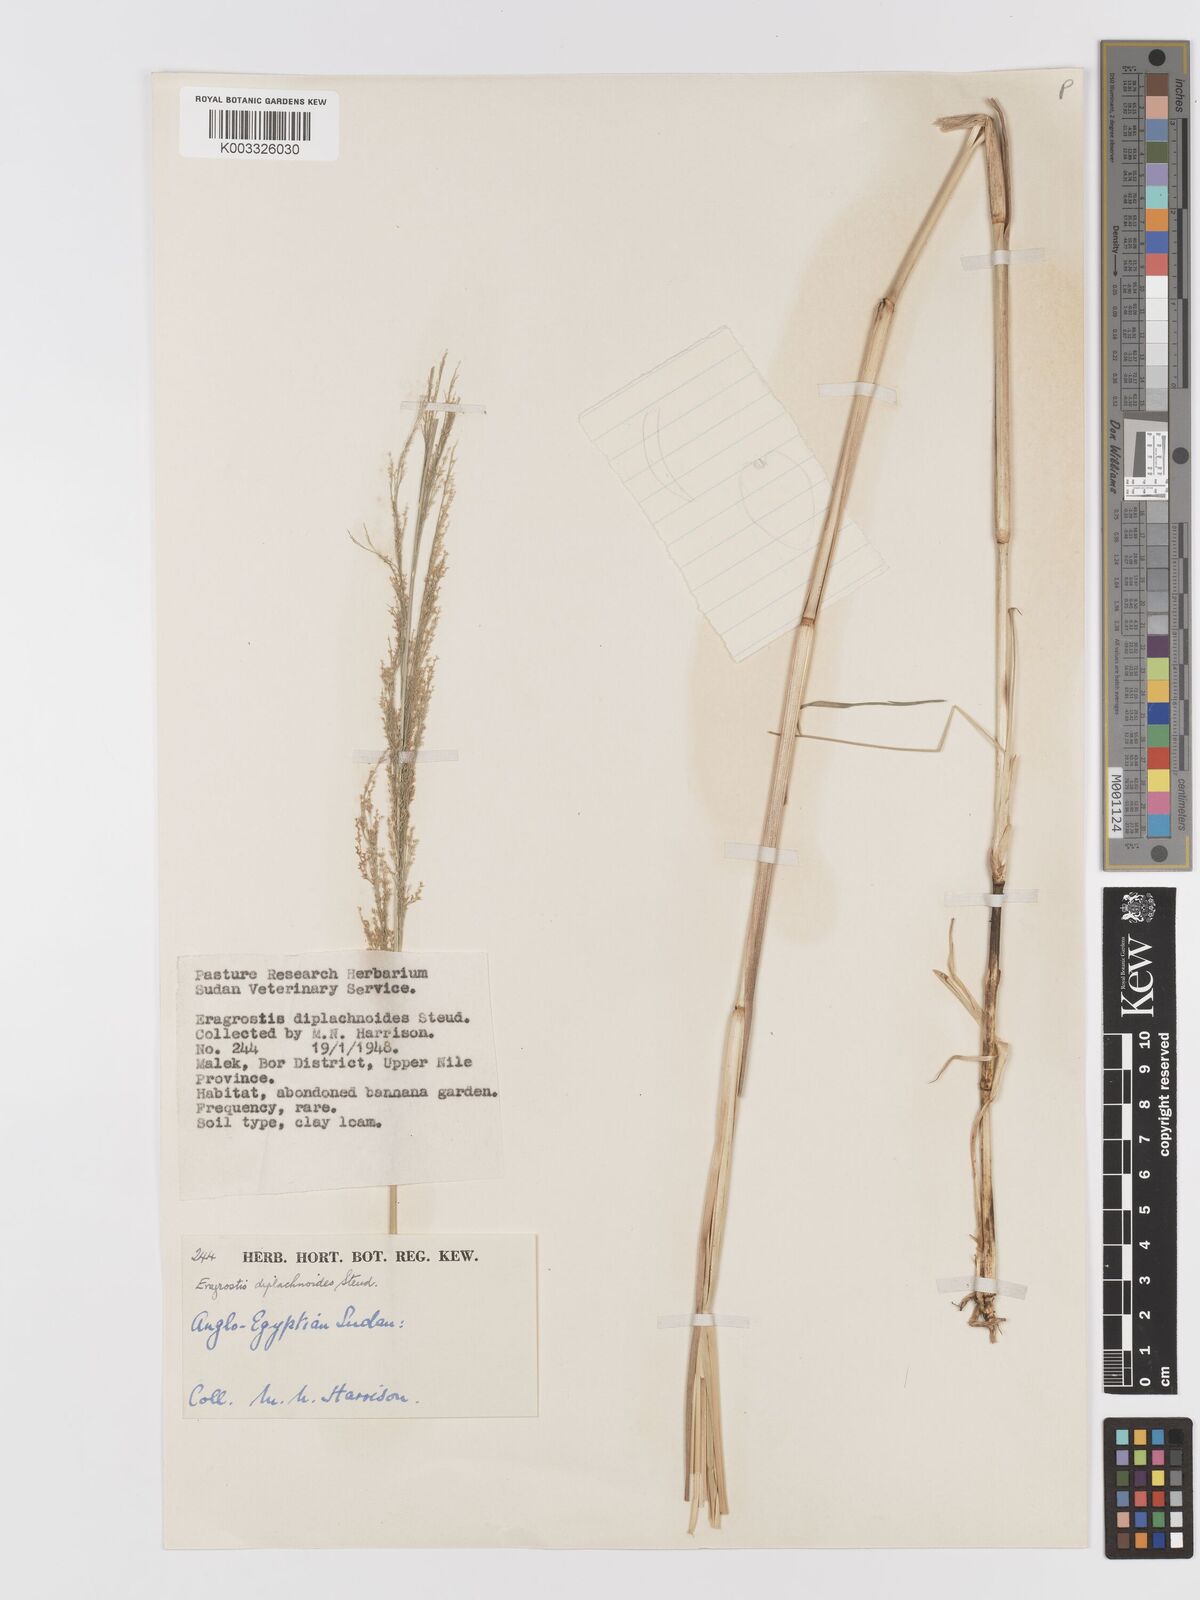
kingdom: Plantae
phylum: Tracheophyta
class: Liliopsida
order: Poales
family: Poaceae
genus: Eragrostis
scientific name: Eragrostis japonica
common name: Pond lovegrass
